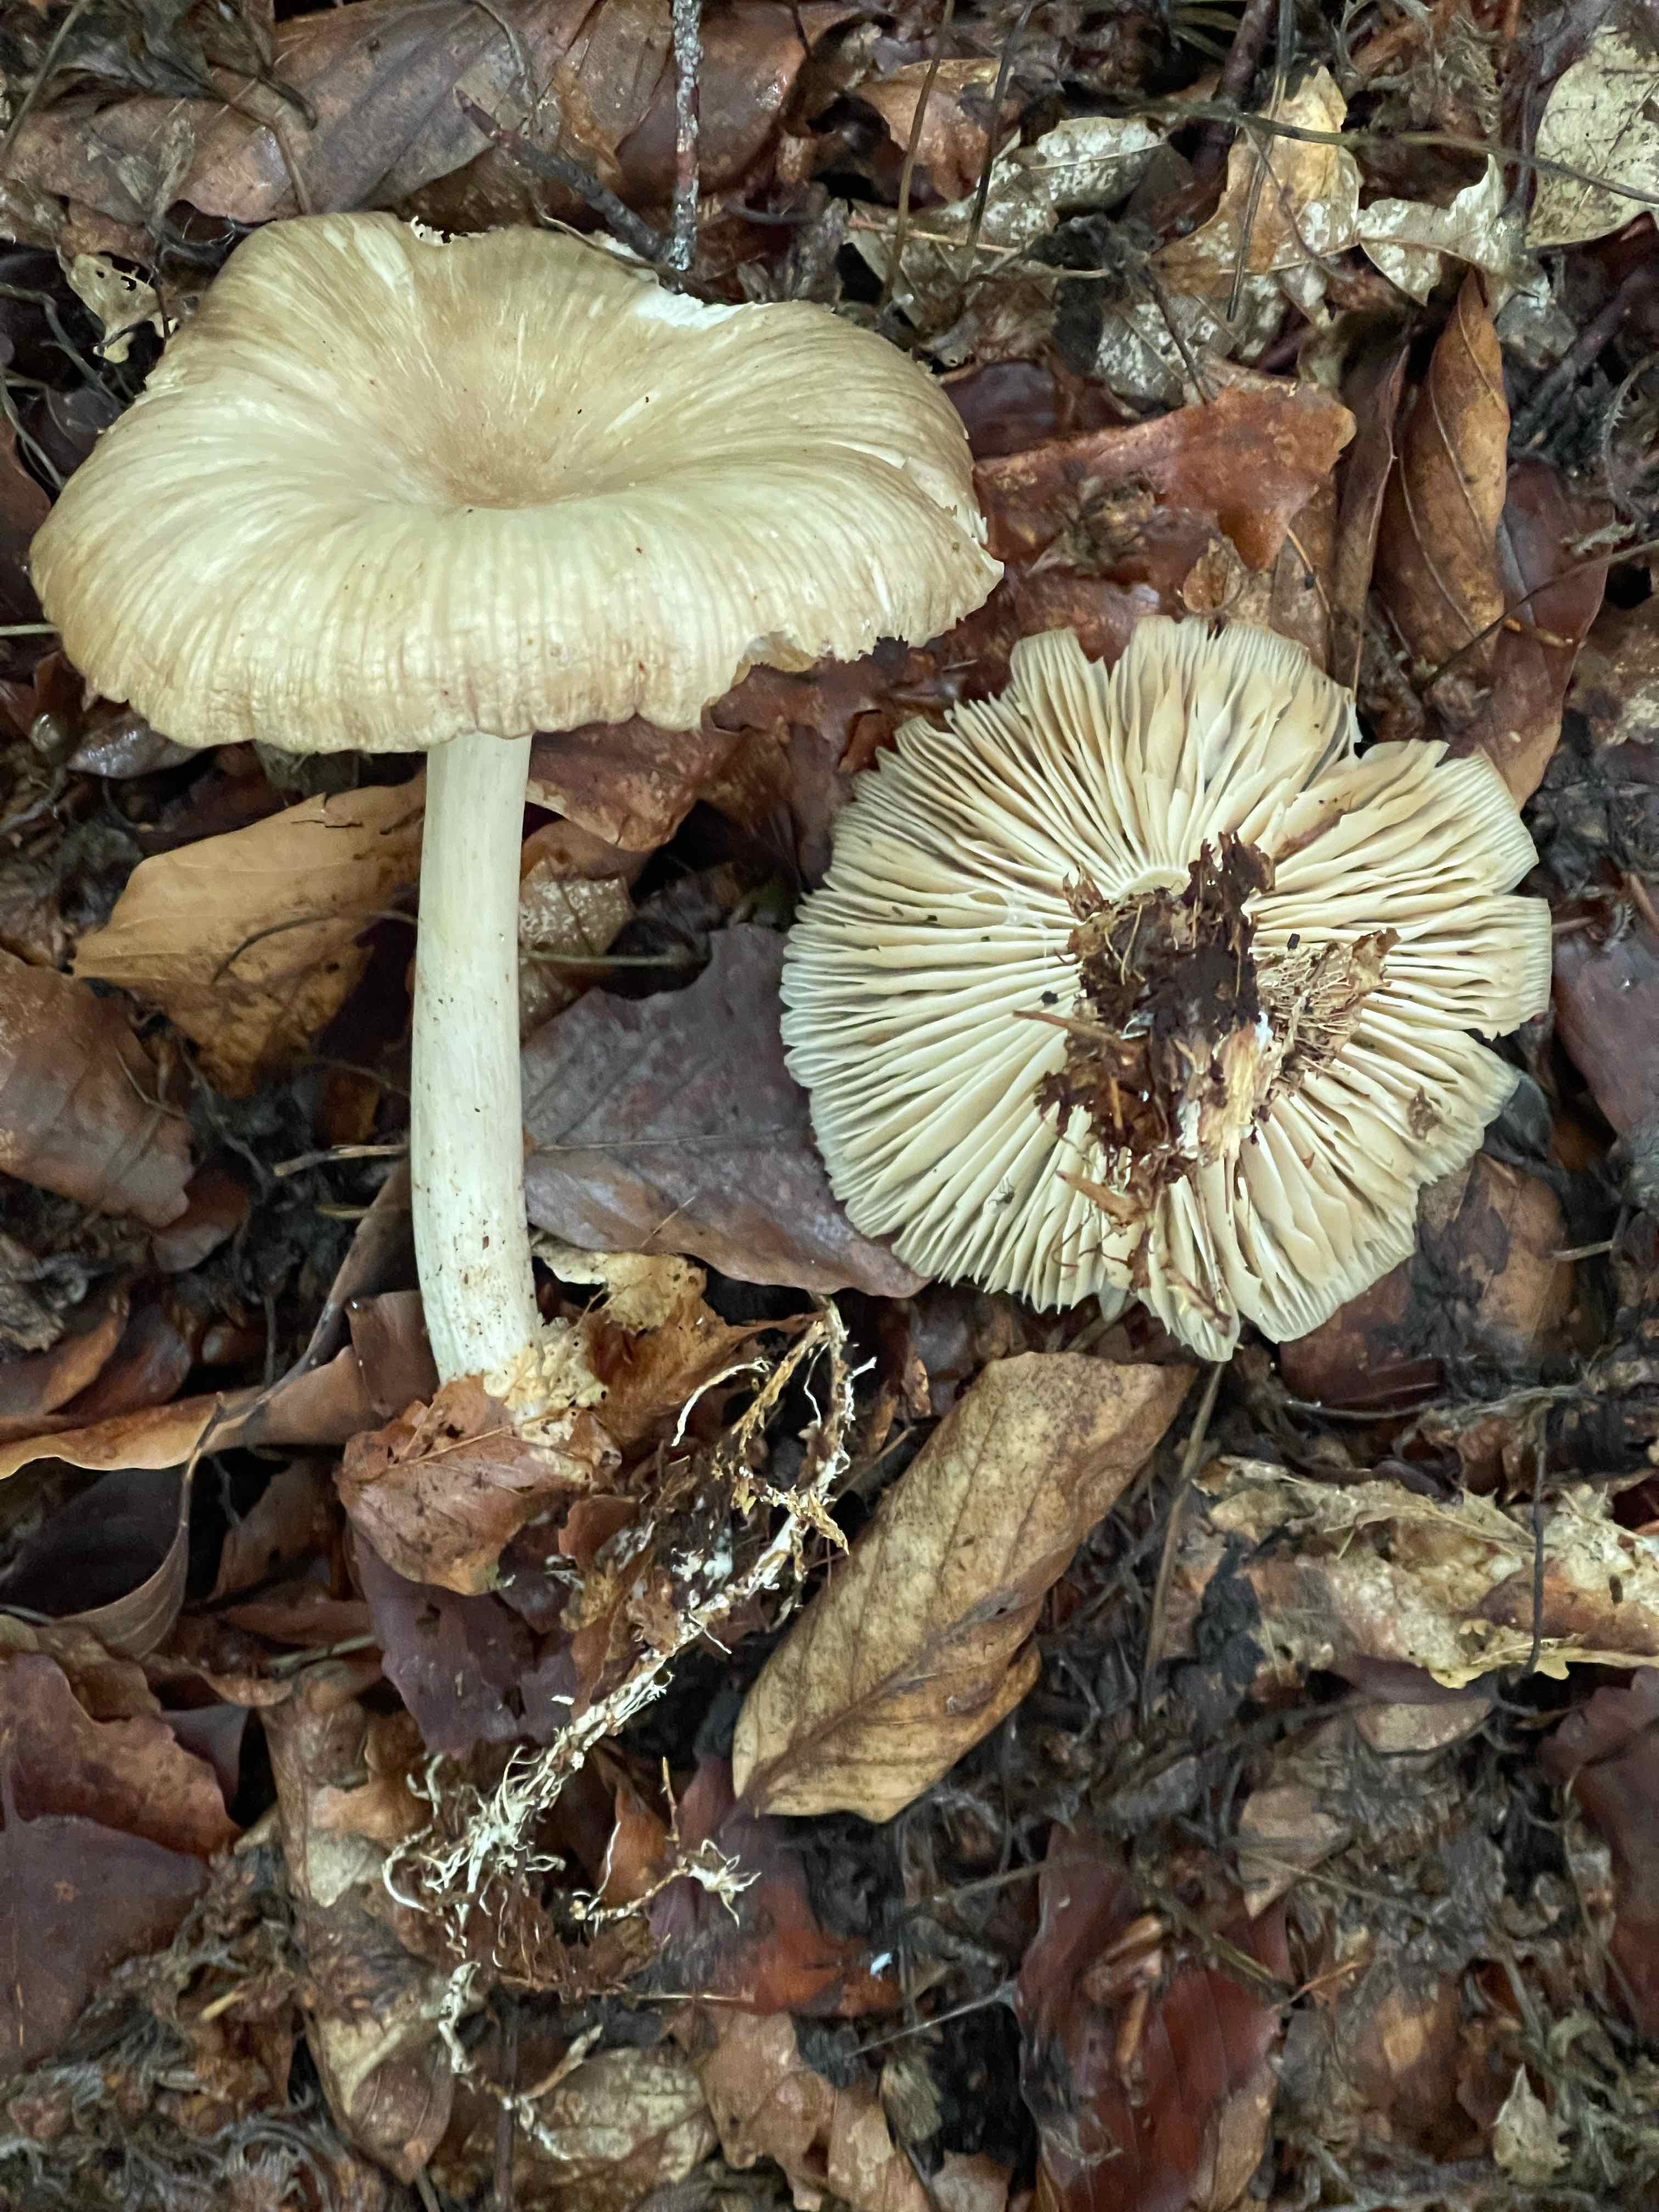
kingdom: Fungi
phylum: Basidiomycota
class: Agaricomycetes
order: Agaricales
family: Tricholomataceae
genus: Megacollybia
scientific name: Megacollybia platyphylla
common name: bredbladet væbnerhat
